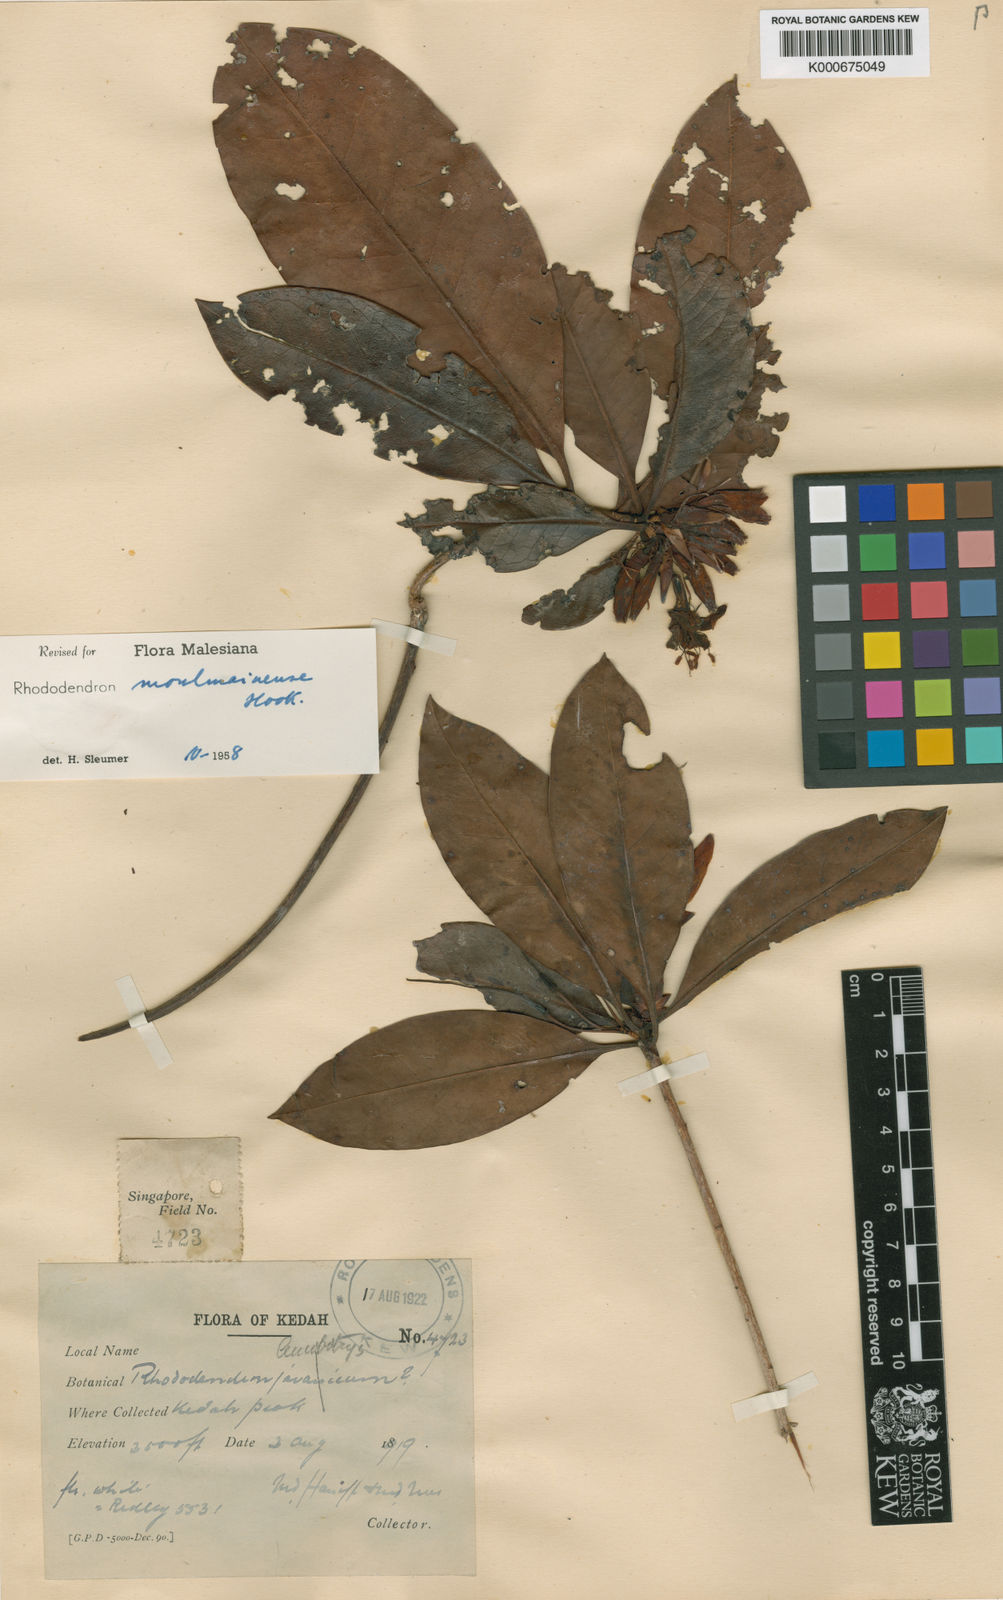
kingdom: Plantae
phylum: Tracheophyta
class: Magnoliopsida
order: Ericales
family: Ericaceae
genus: Rhododendron
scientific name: Rhododendron moulmainense
